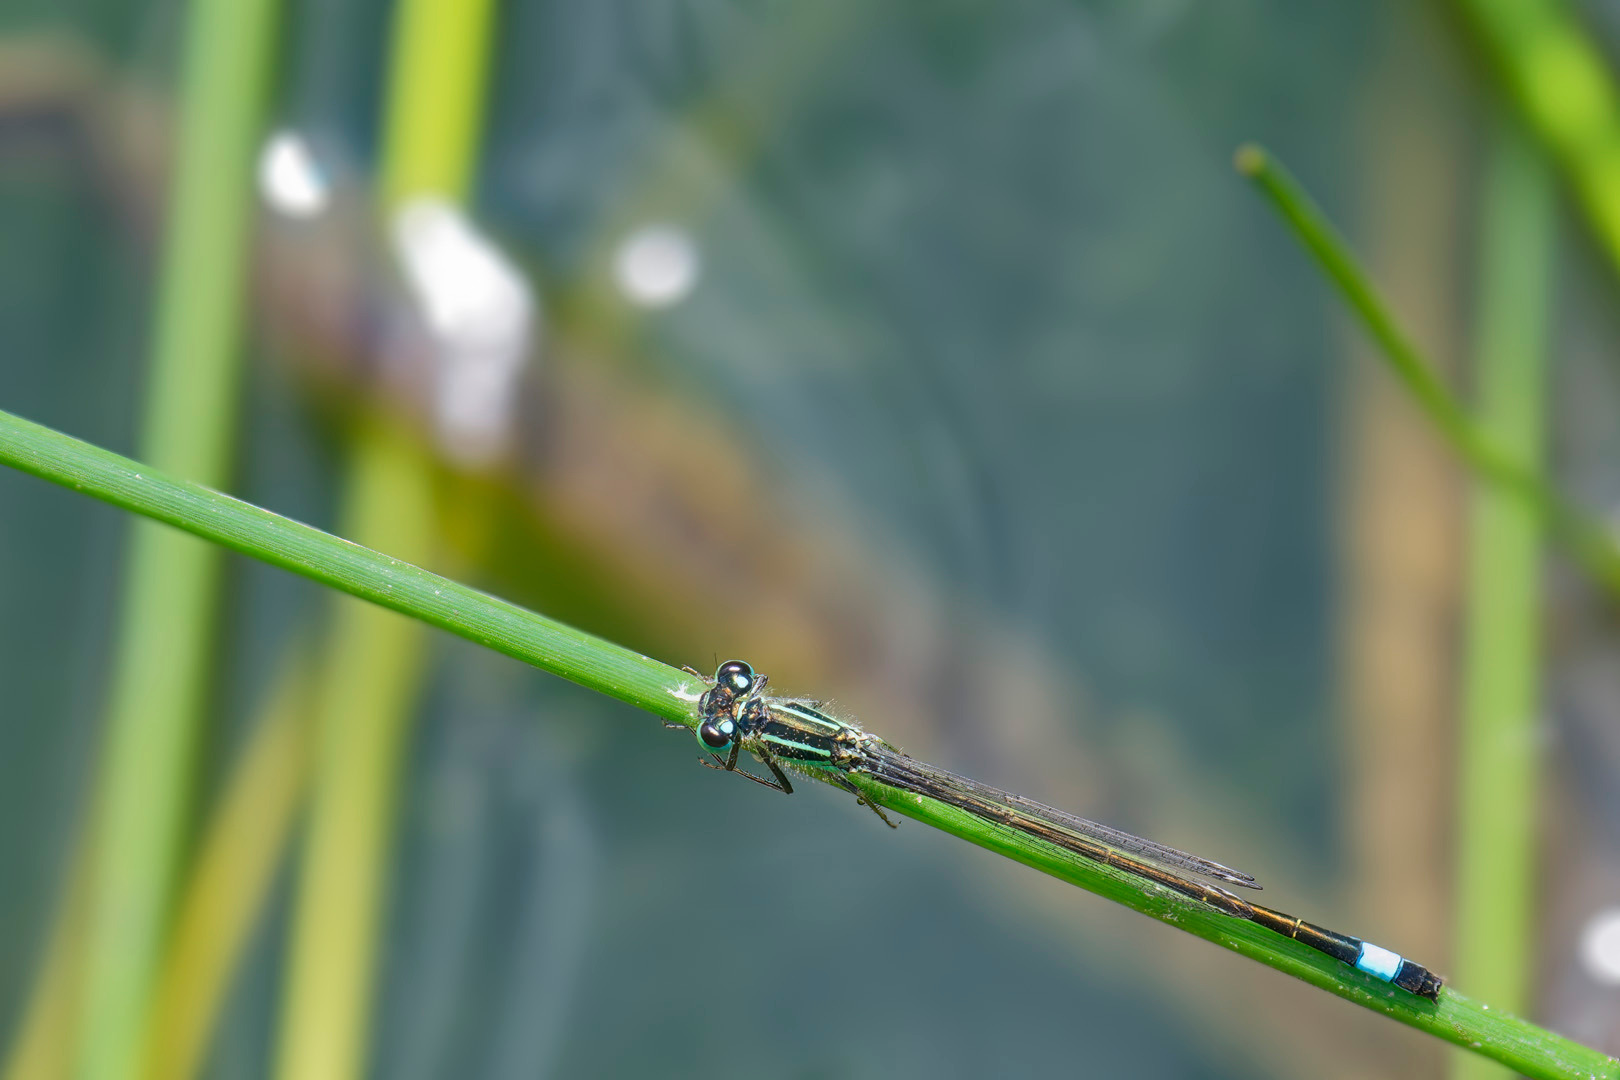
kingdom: Animalia
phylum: Arthropoda
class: Insecta
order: Odonata
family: Coenagrionidae
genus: Ischnura
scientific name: Ischnura elegans
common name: Stor farvevandnymfe
